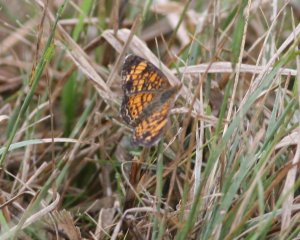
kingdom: Animalia
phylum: Arthropoda
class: Insecta
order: Lepidoptera
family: Nymphalidae
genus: Phyciodes
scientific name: Phyciodes tharos
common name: Pearl Crescent
